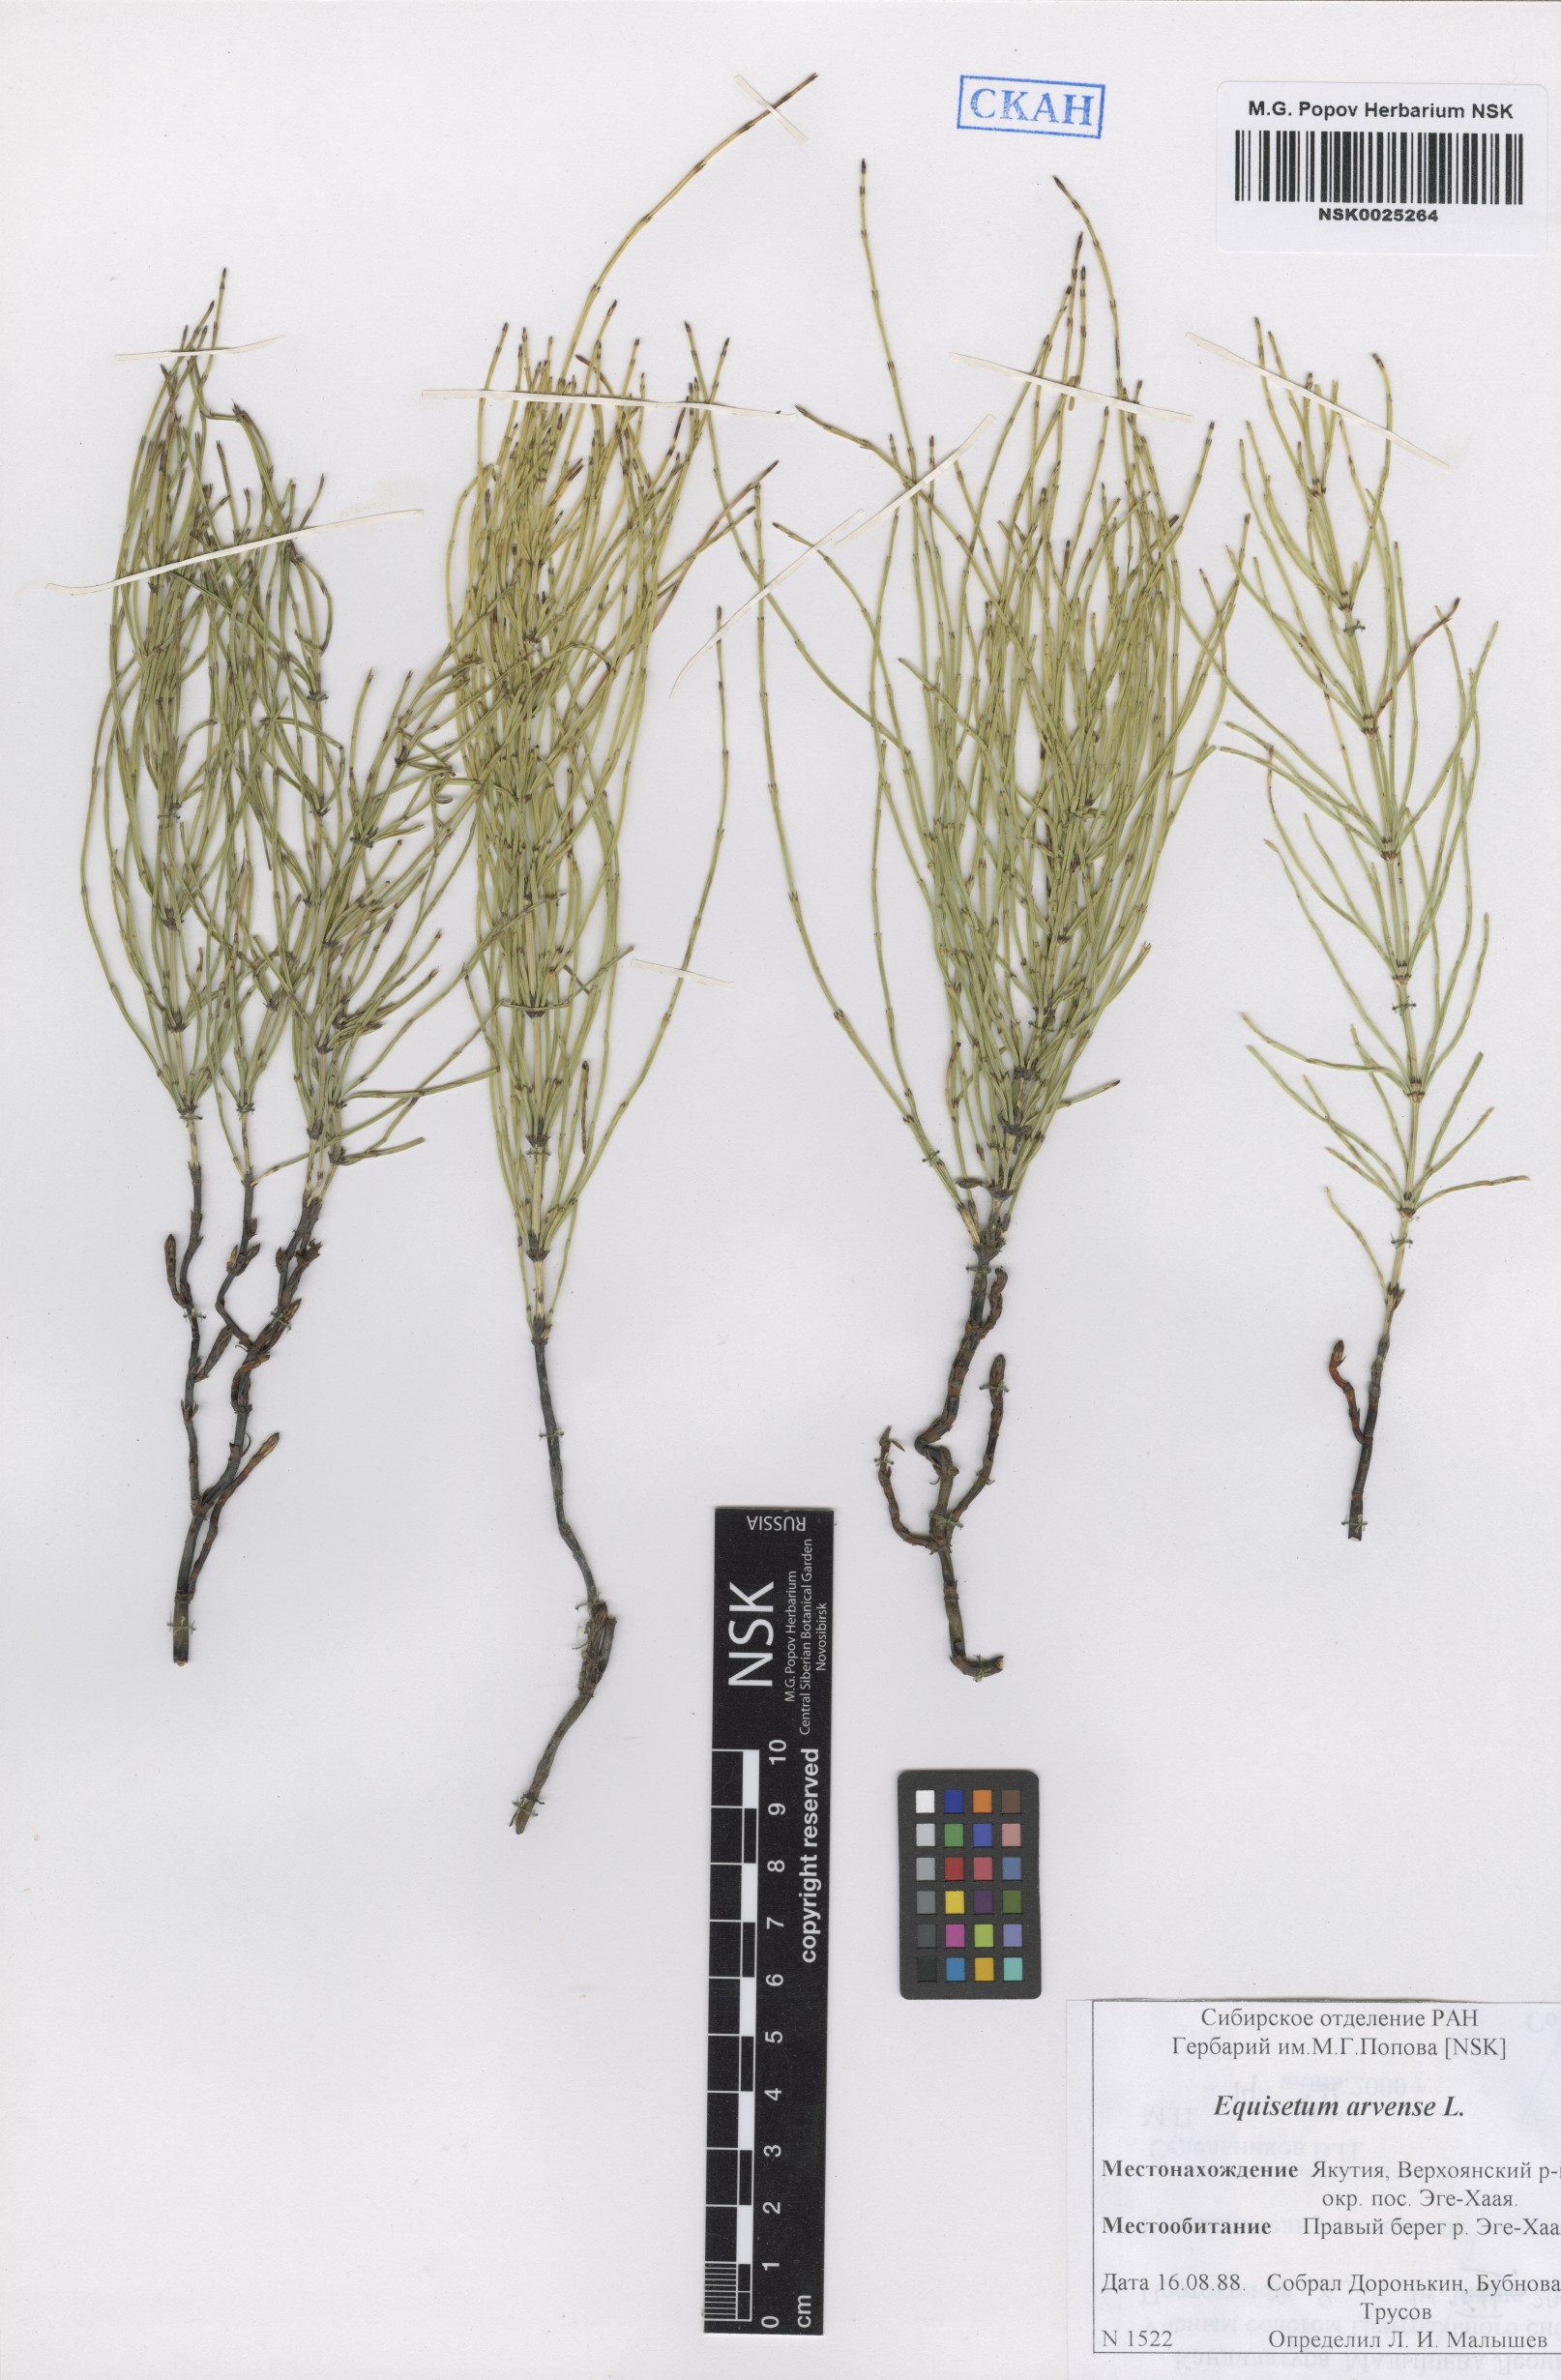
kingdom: Plantae
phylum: Tracheophyta
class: Polypodiopsida
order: Equisetales
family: Equisetaceae
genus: Equisetum
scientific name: Equisetum arvense
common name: Field horsetail
